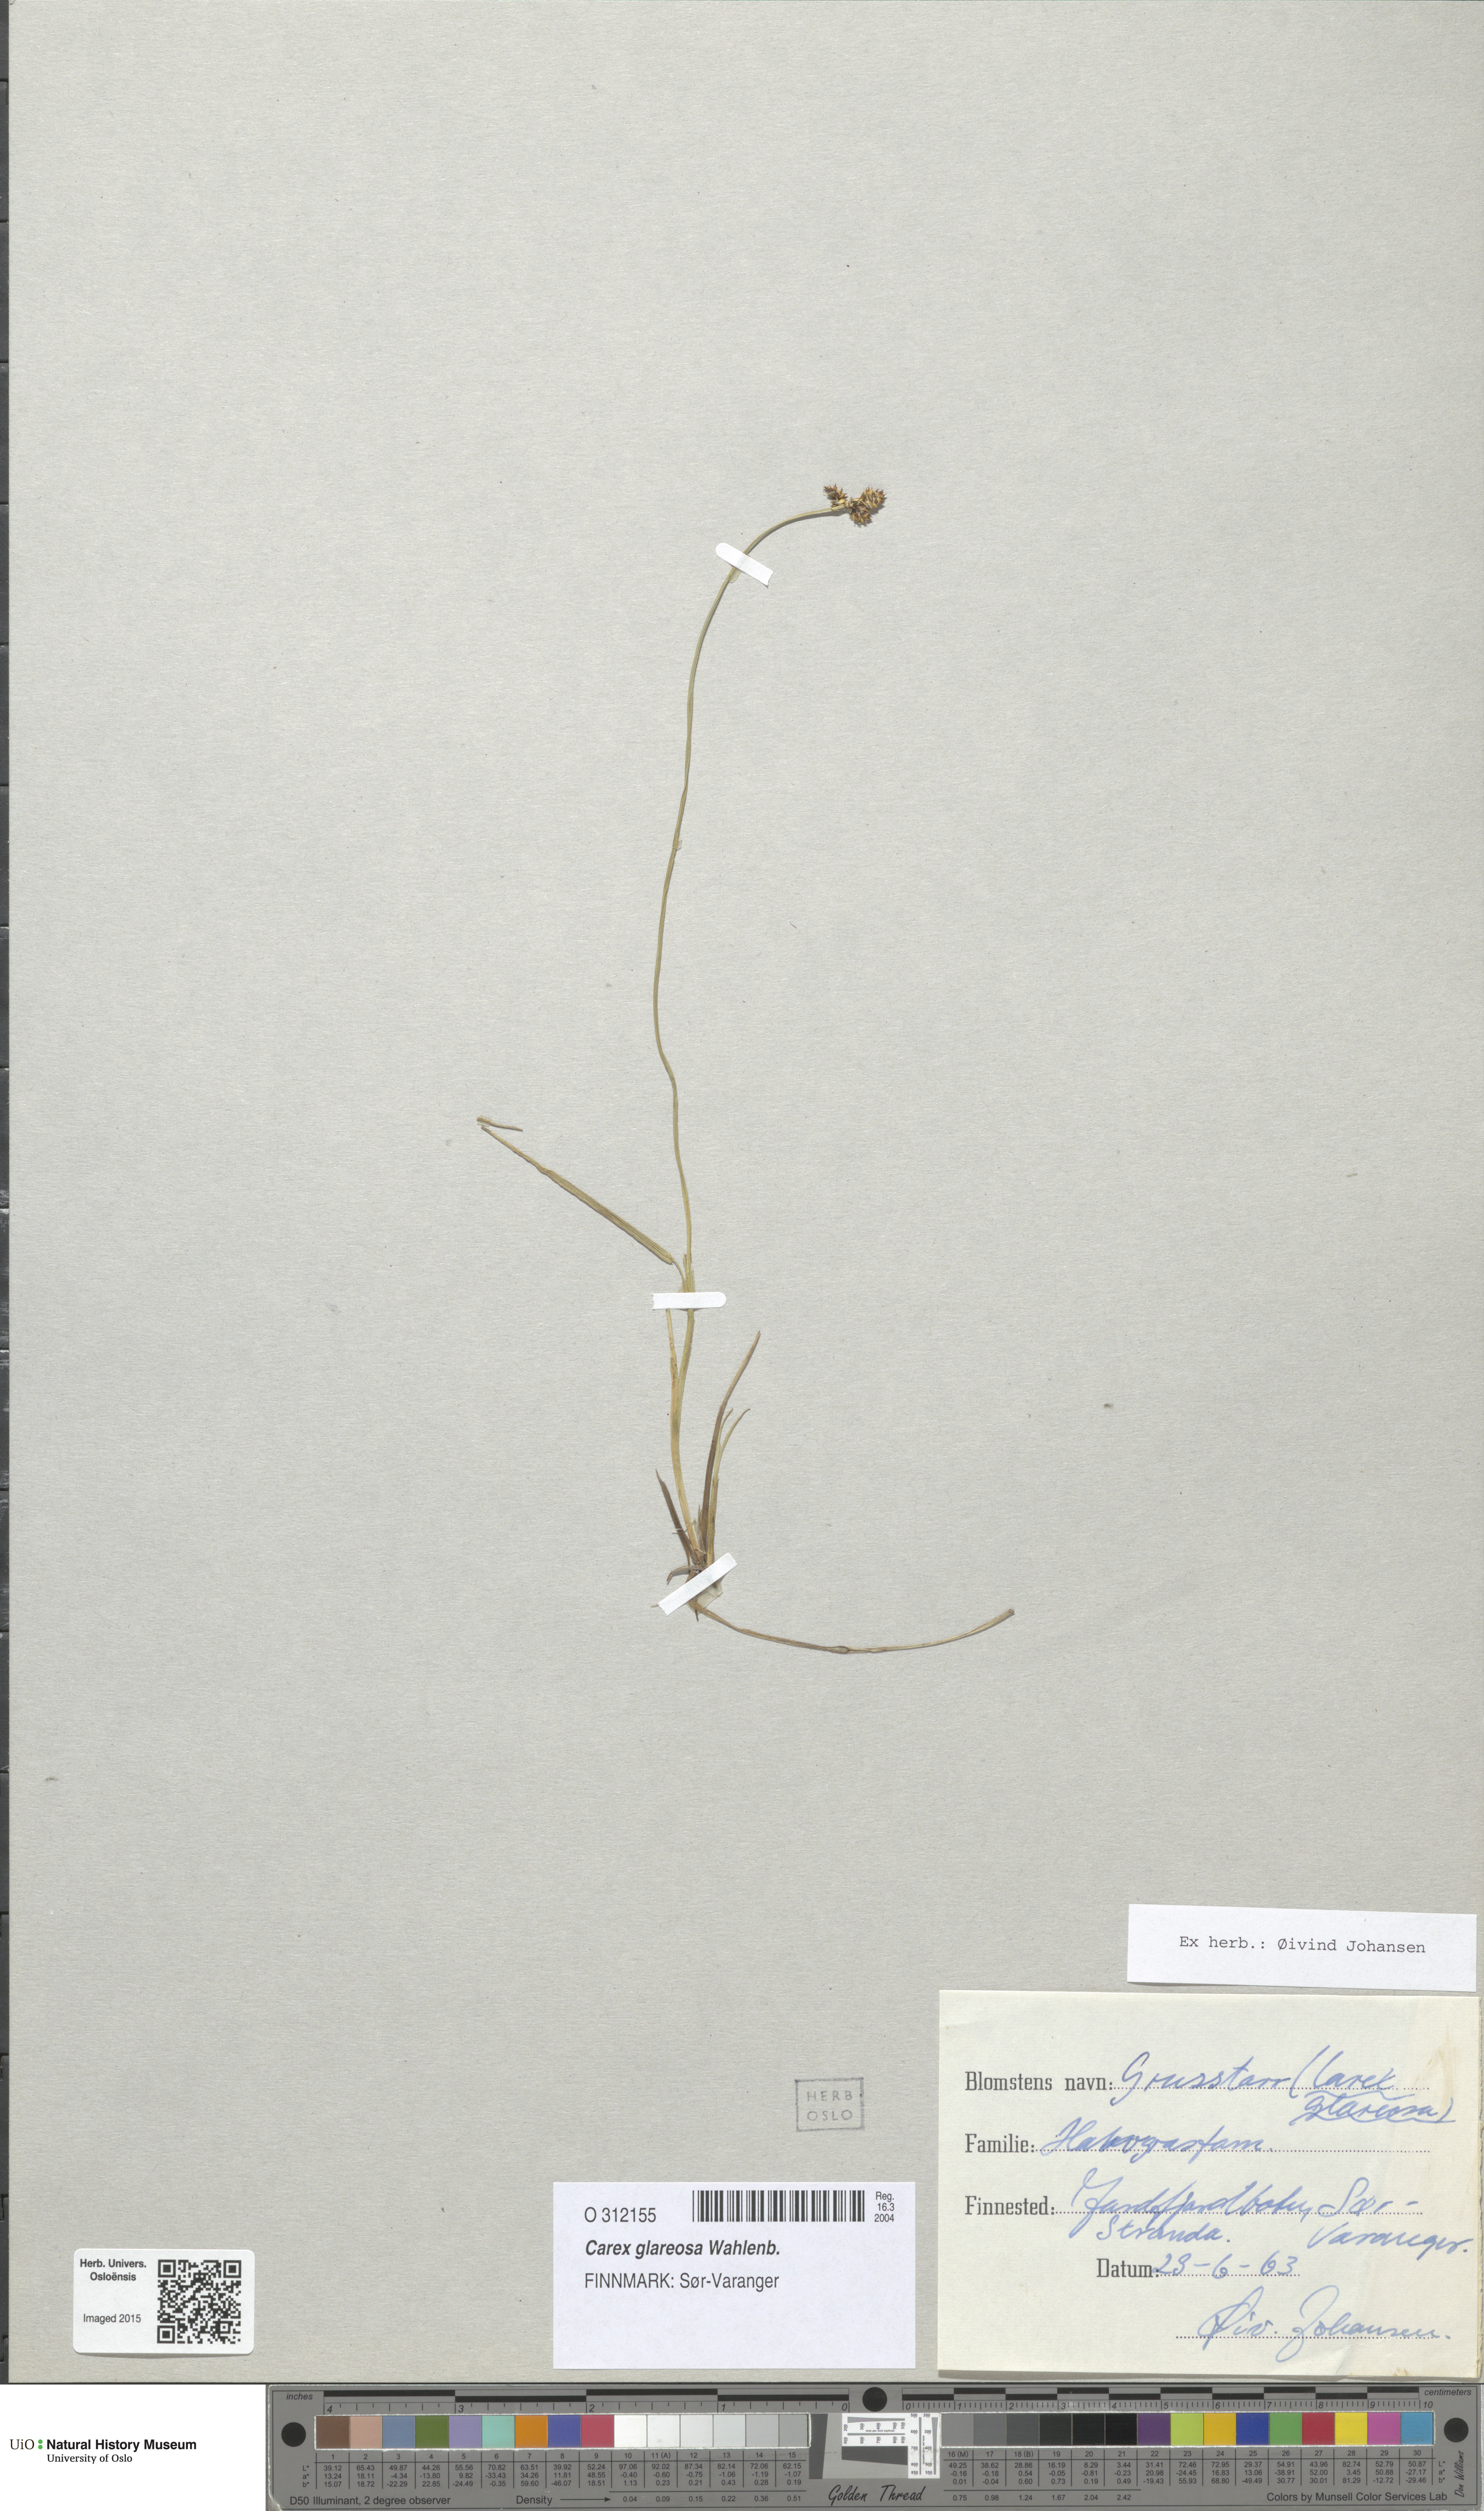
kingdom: Plantae
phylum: Tracheophyta
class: Liliopsida
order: Poales
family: Cyperaceae
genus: Carex
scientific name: Carex glareosa
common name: Clustered sedge
